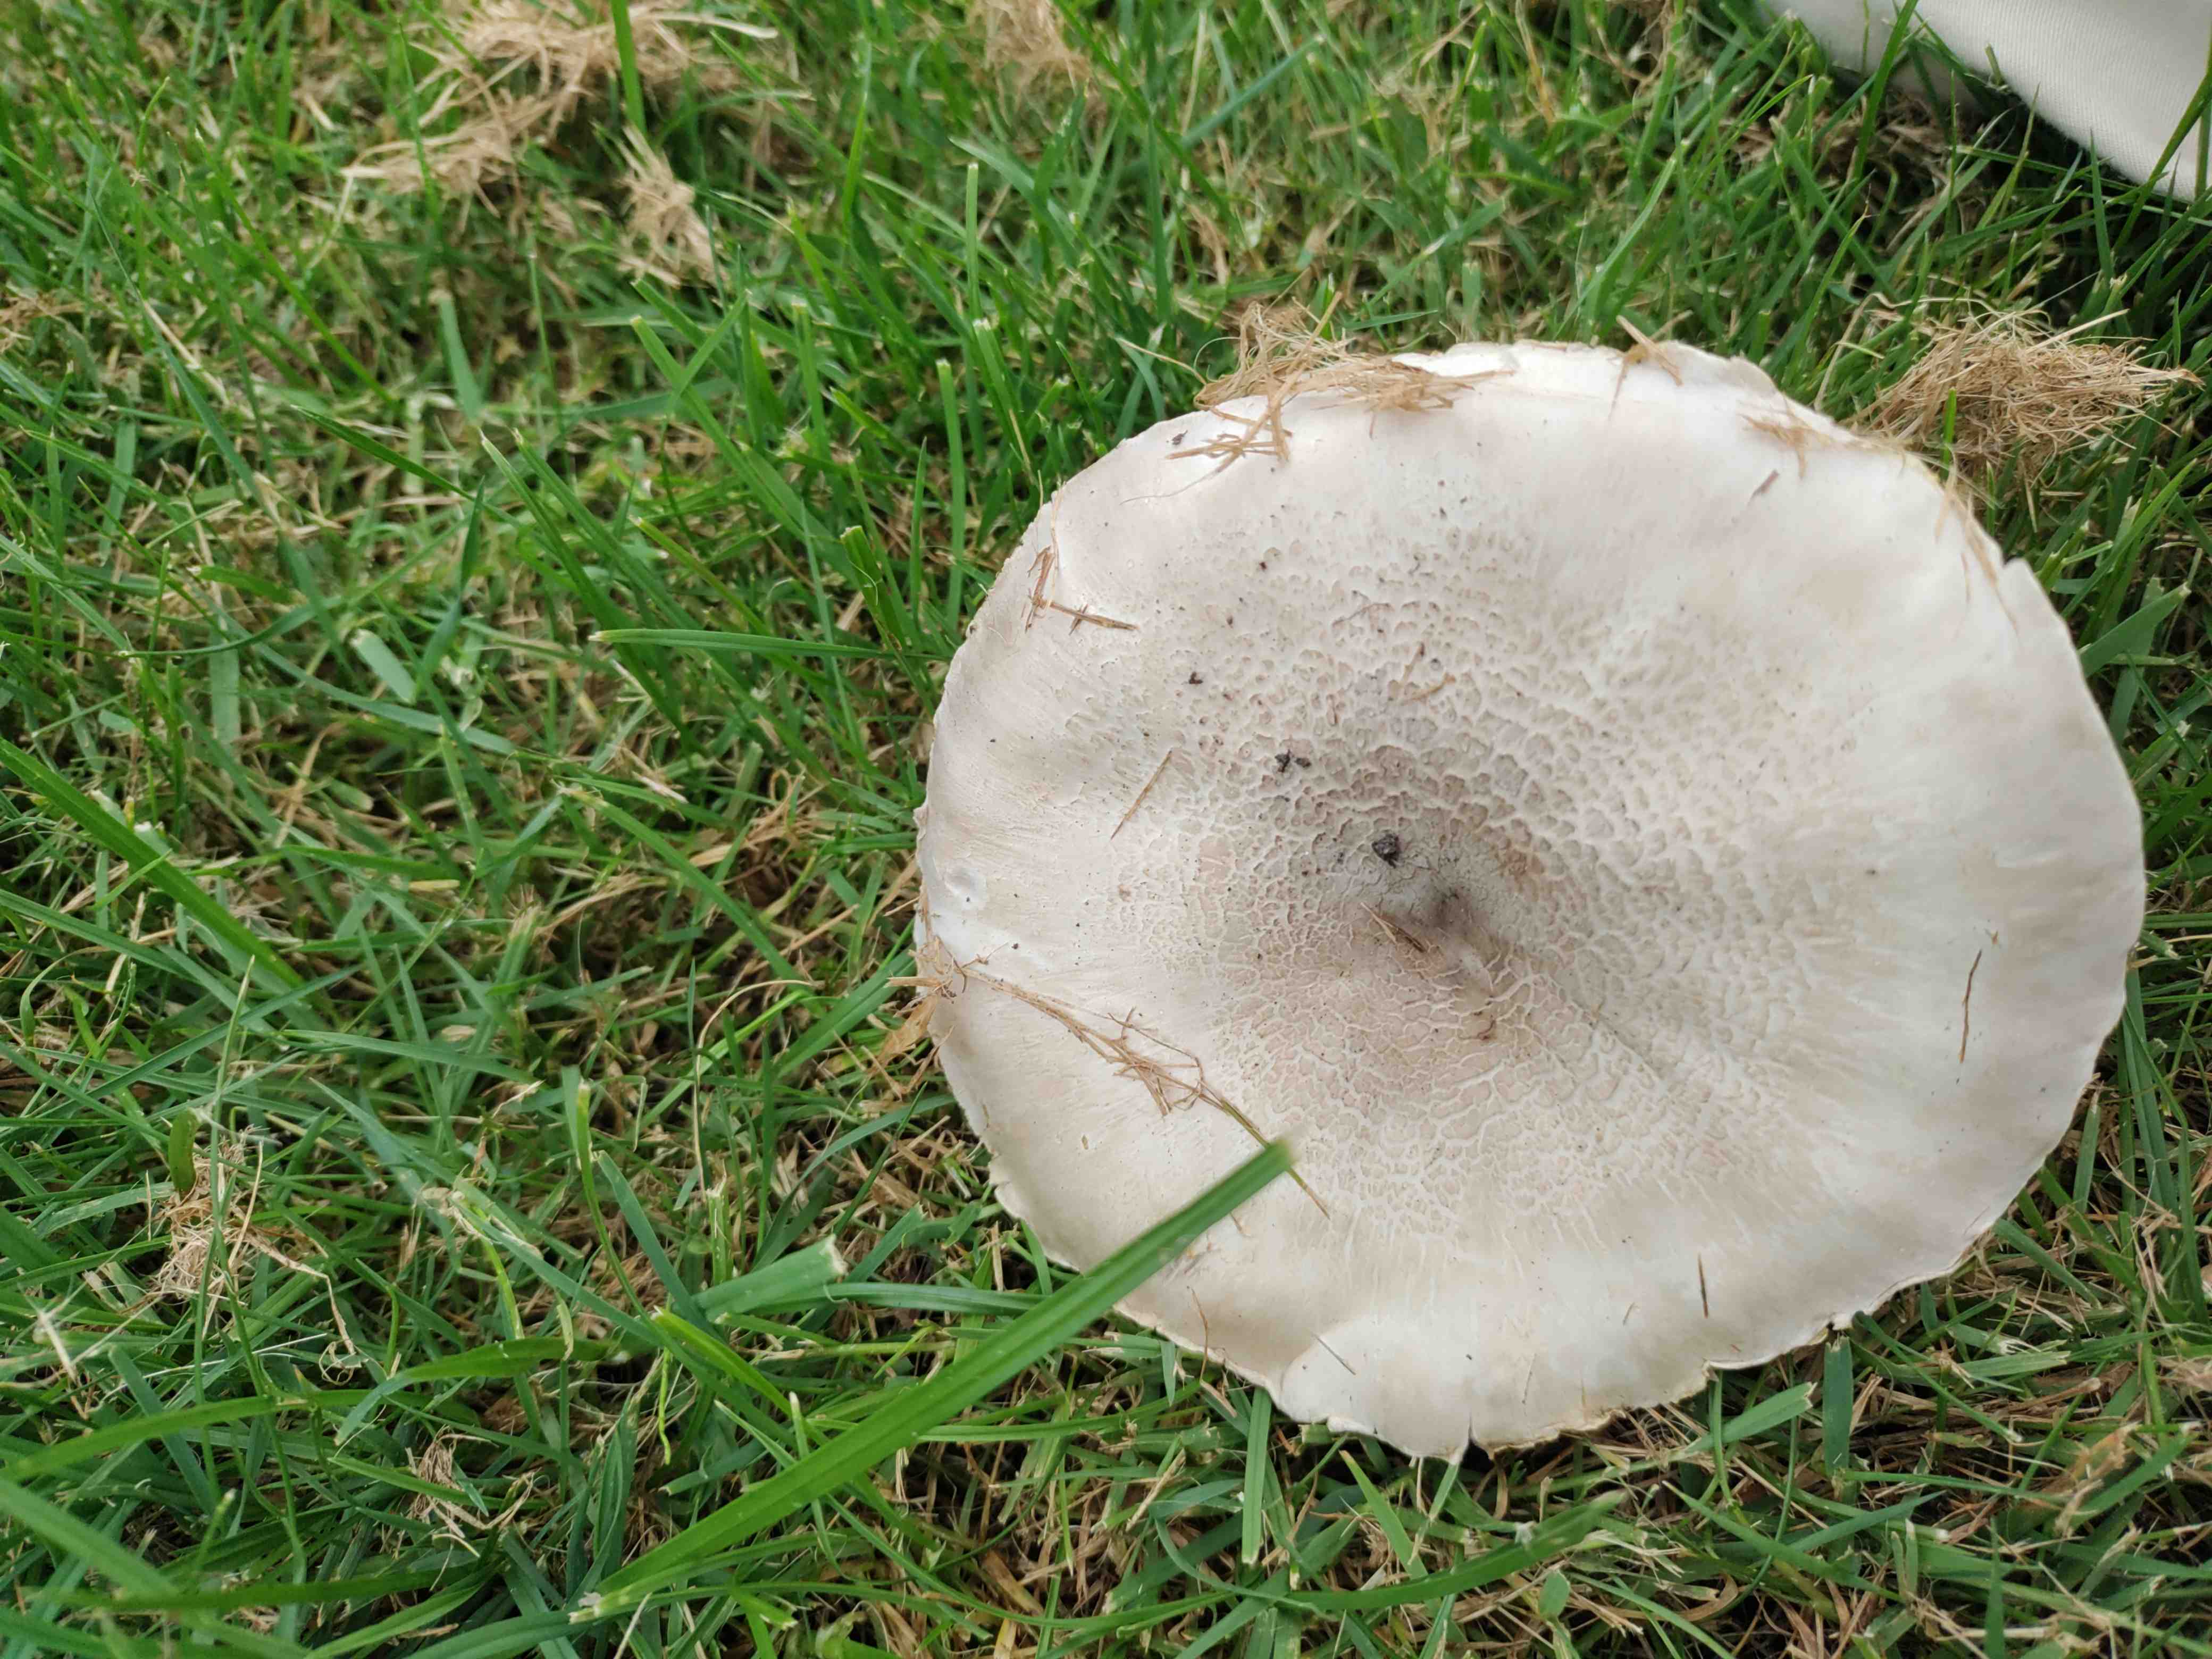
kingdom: Fungi
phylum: Basidiomycota
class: Agaricomycetes
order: Agaricales
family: Agaricaceae
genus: Agaricus
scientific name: Agaricus xanthodermus
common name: karbol-champignon
